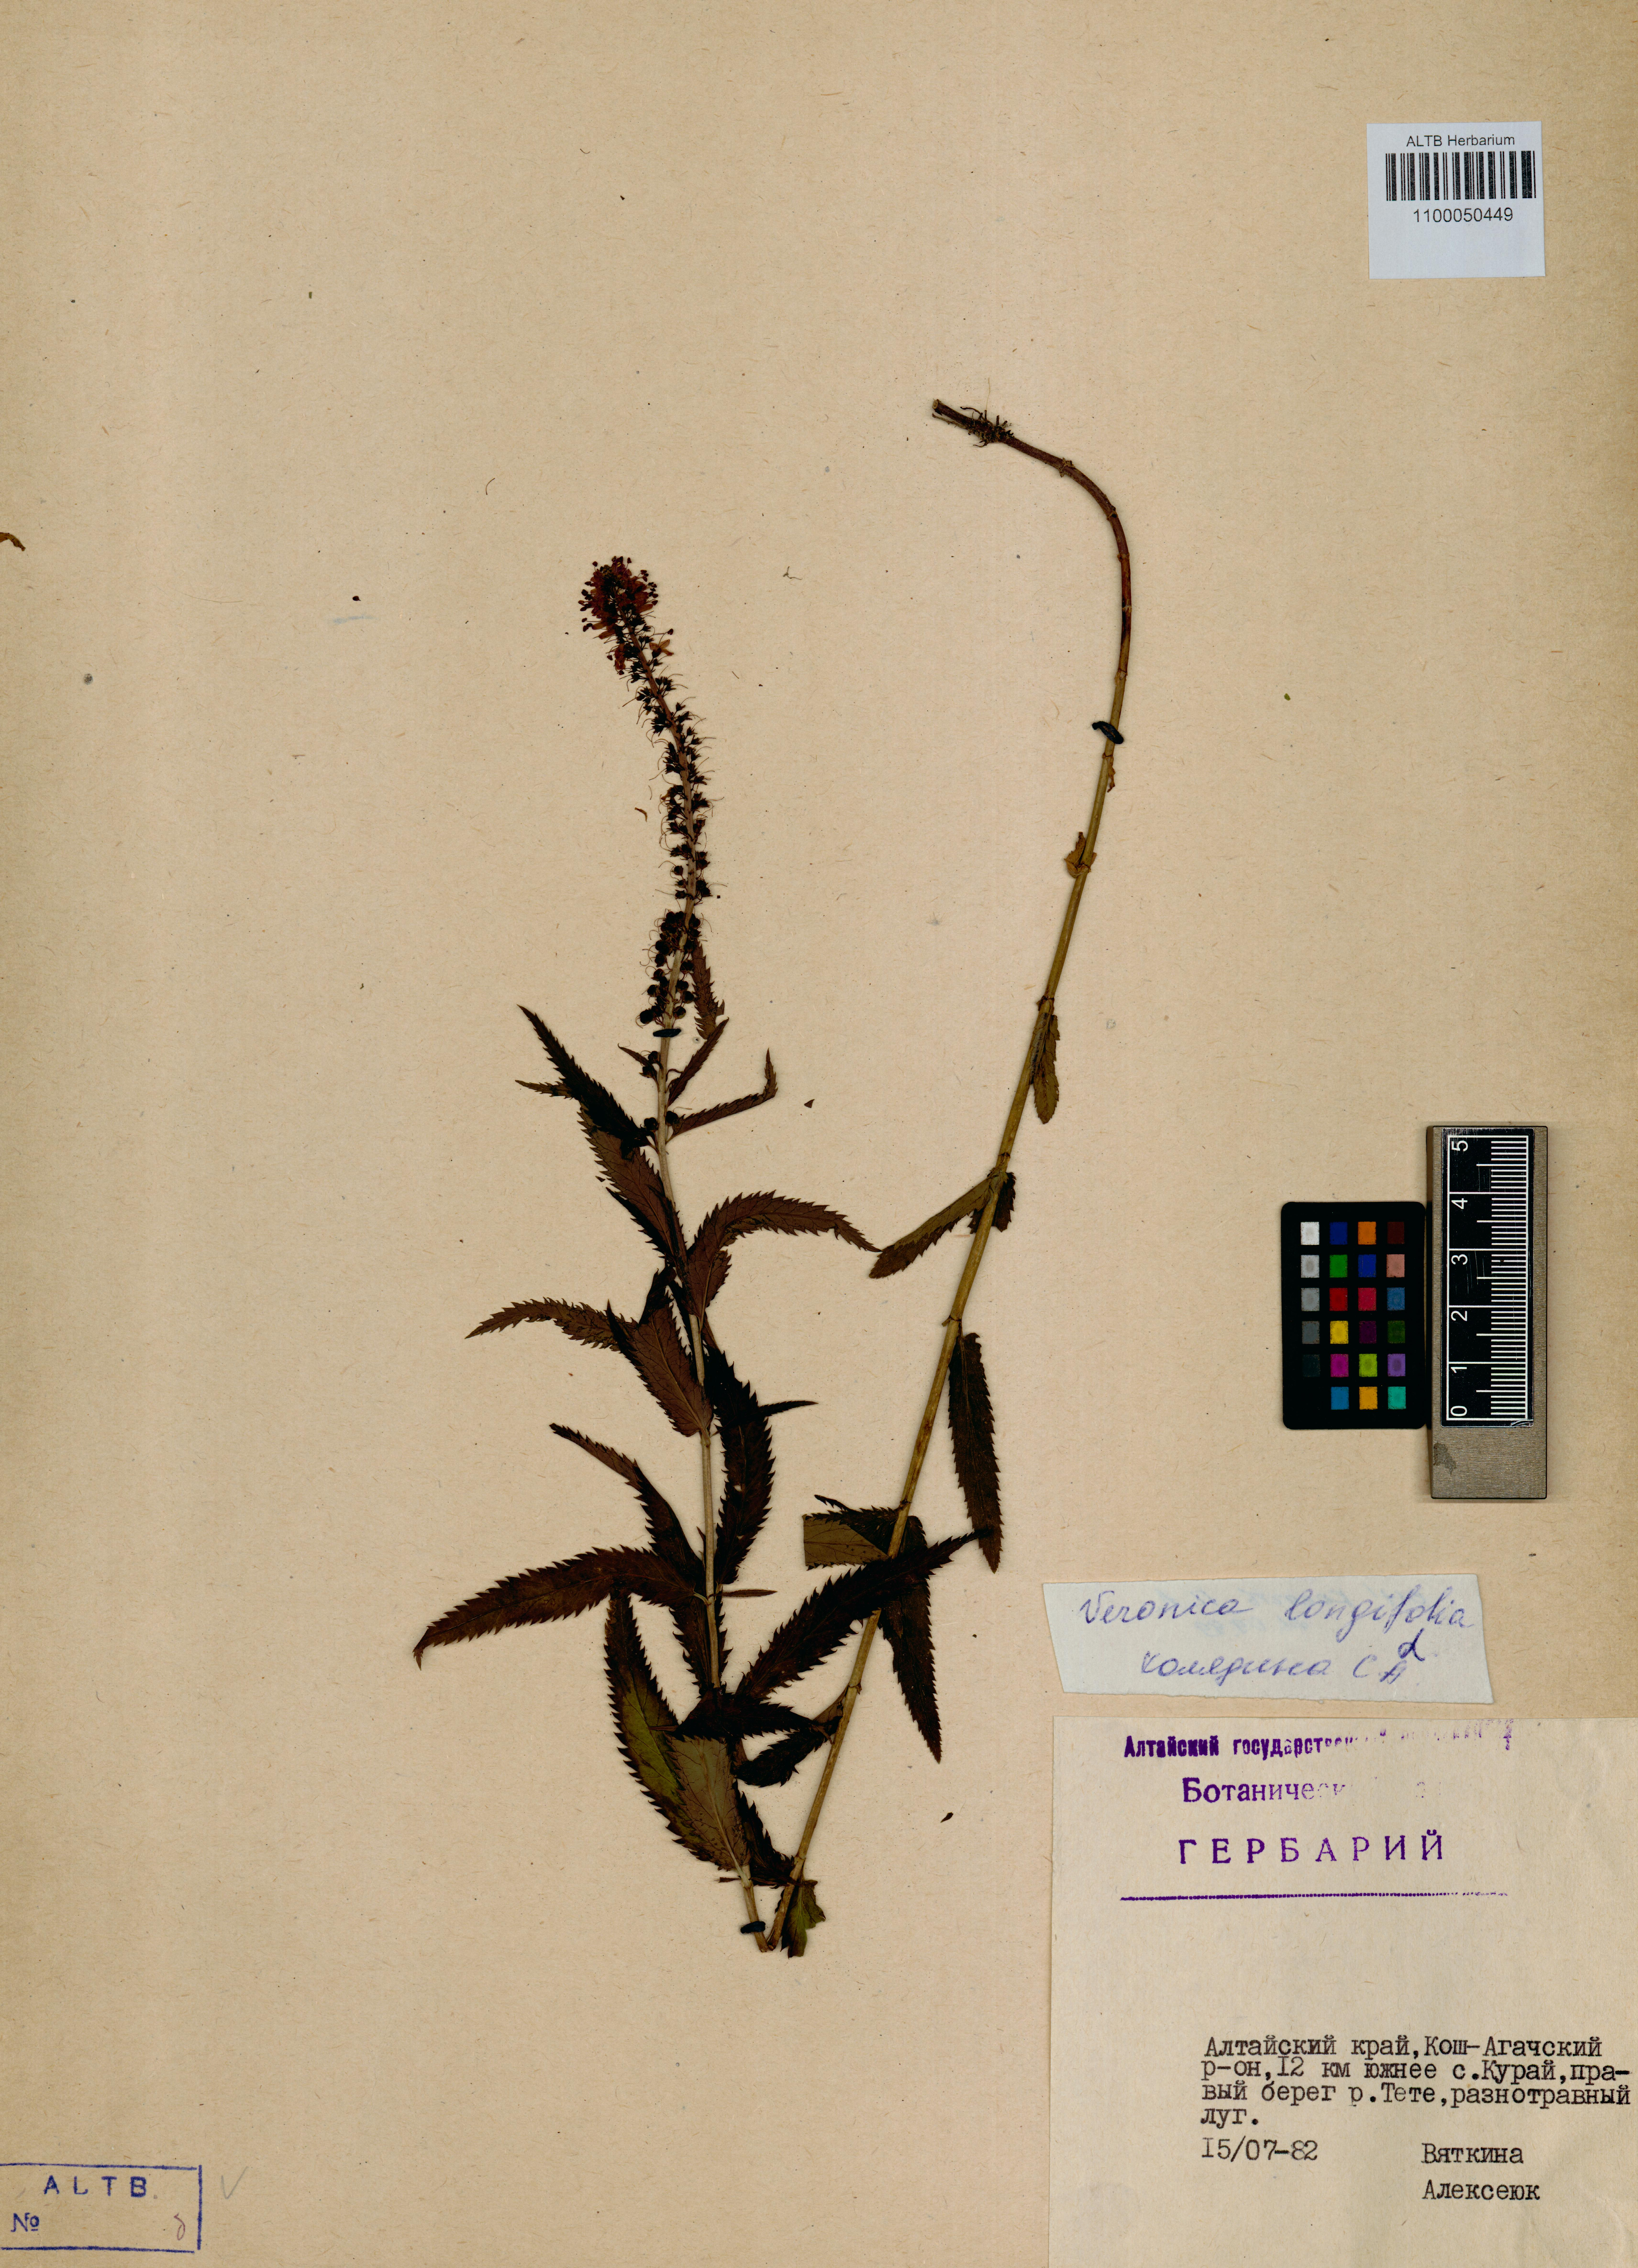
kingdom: Plantae
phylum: Tracheophyta
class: Magnoliopsida
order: Lamiales
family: Plantaginaceae
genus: Veronica
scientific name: Veronica longifolia
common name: Garden speedwell
